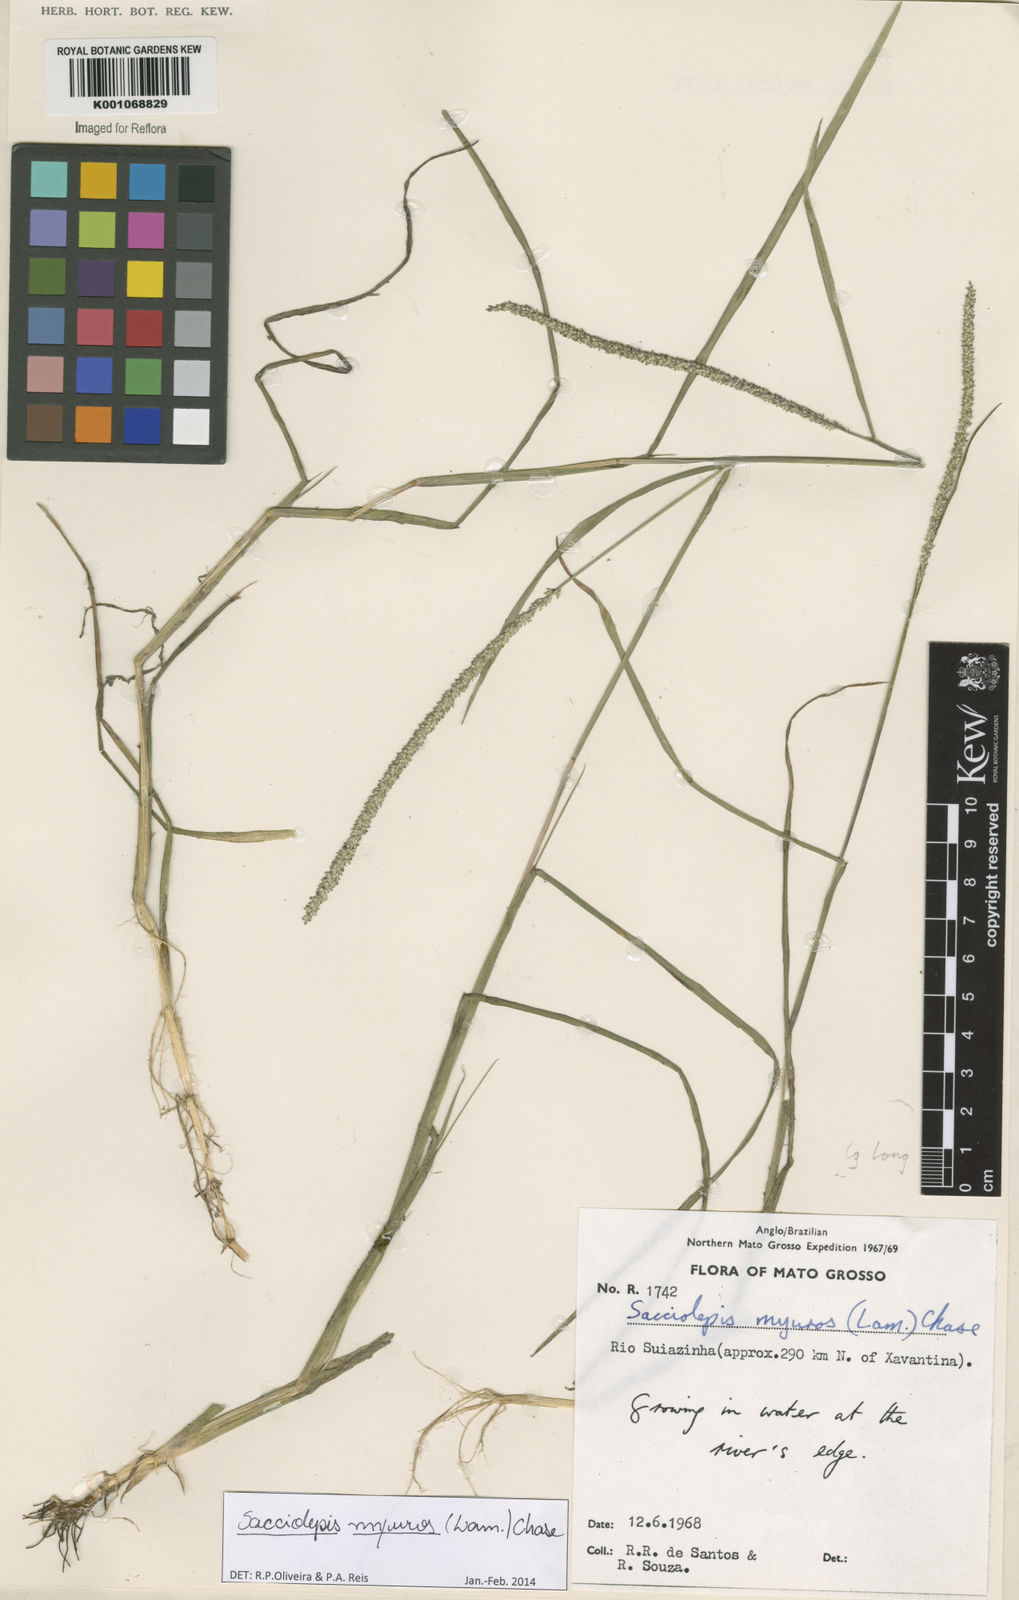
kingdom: Plantae
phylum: Tracheophyta
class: Liliopsida
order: Poales
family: Poaceae
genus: Sacciolepis
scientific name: Sacciolepis myuros
